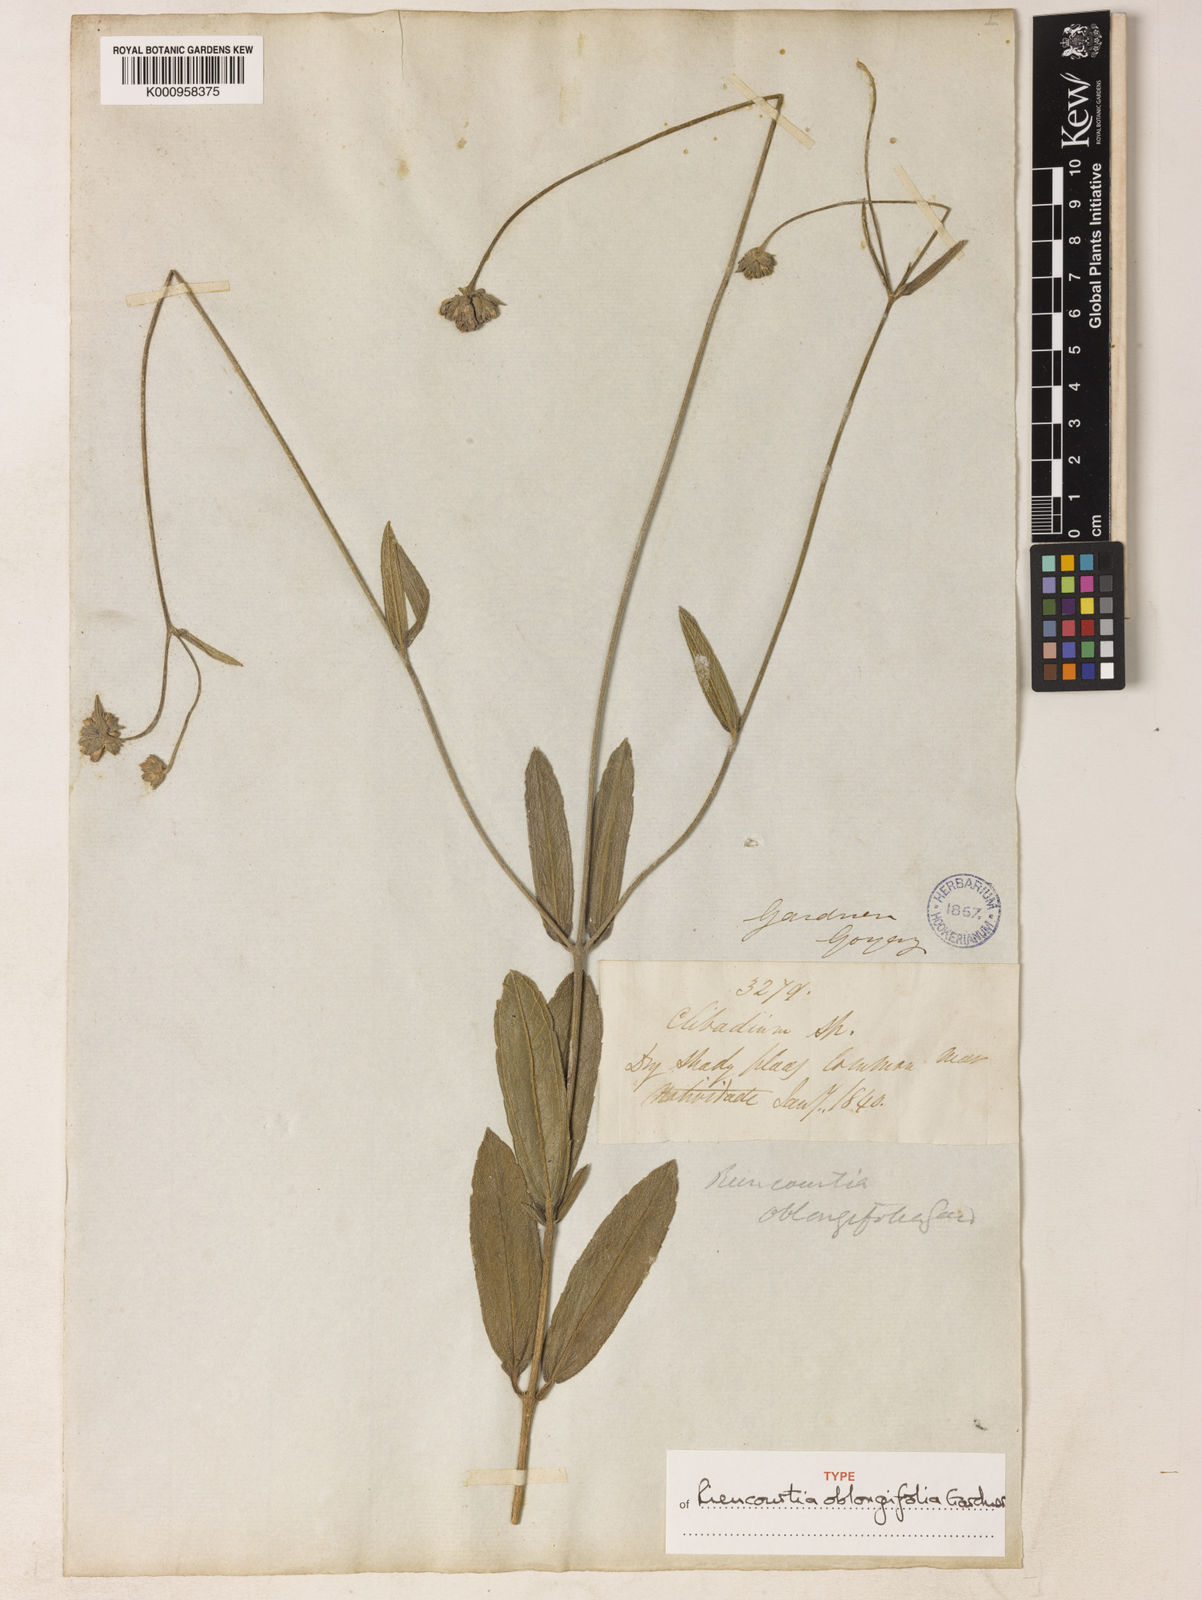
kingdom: Plantae
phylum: Tracheophyta
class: Magnoliopsida
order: Asterales
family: Asteraceae
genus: Riencourtia
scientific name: Riencourtia oblongifolia
